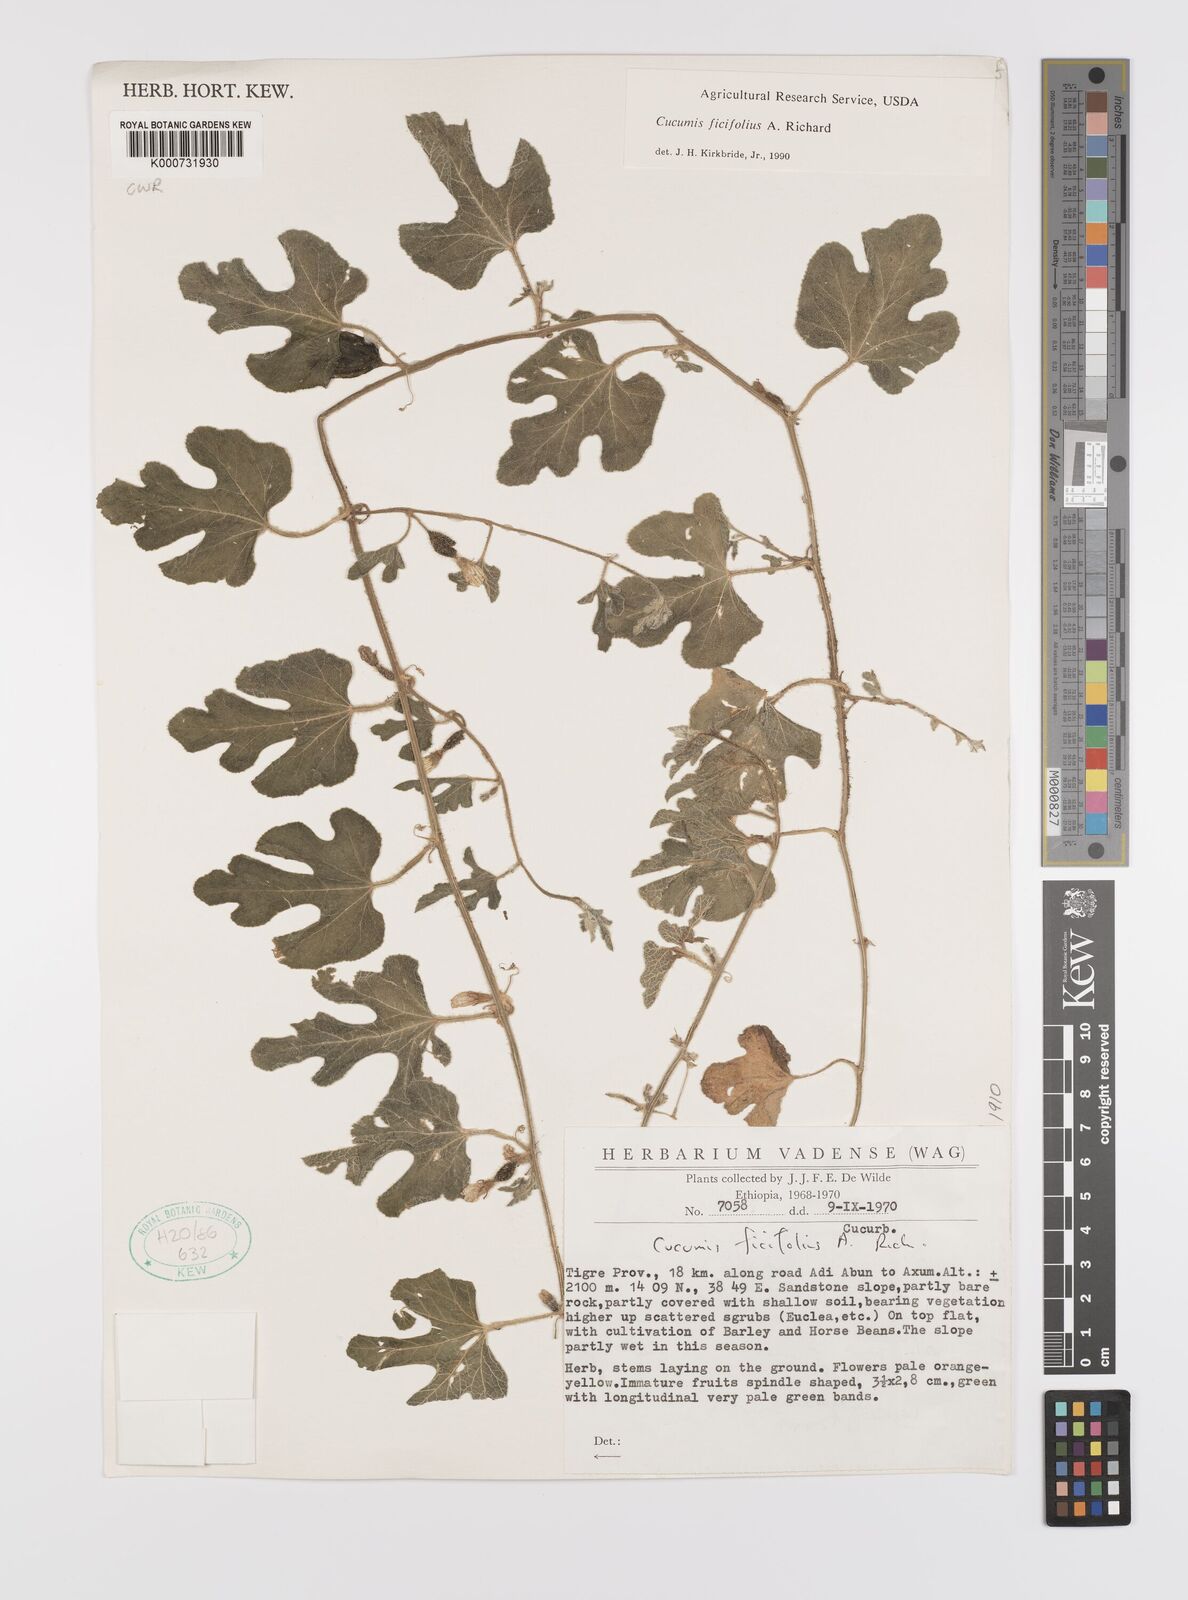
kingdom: Plantae
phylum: Tracheophyta
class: Magnoliopsida
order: Cucurbitales
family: Cucurbitaceae
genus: Cucumis
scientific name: Cucumis ficifolius
